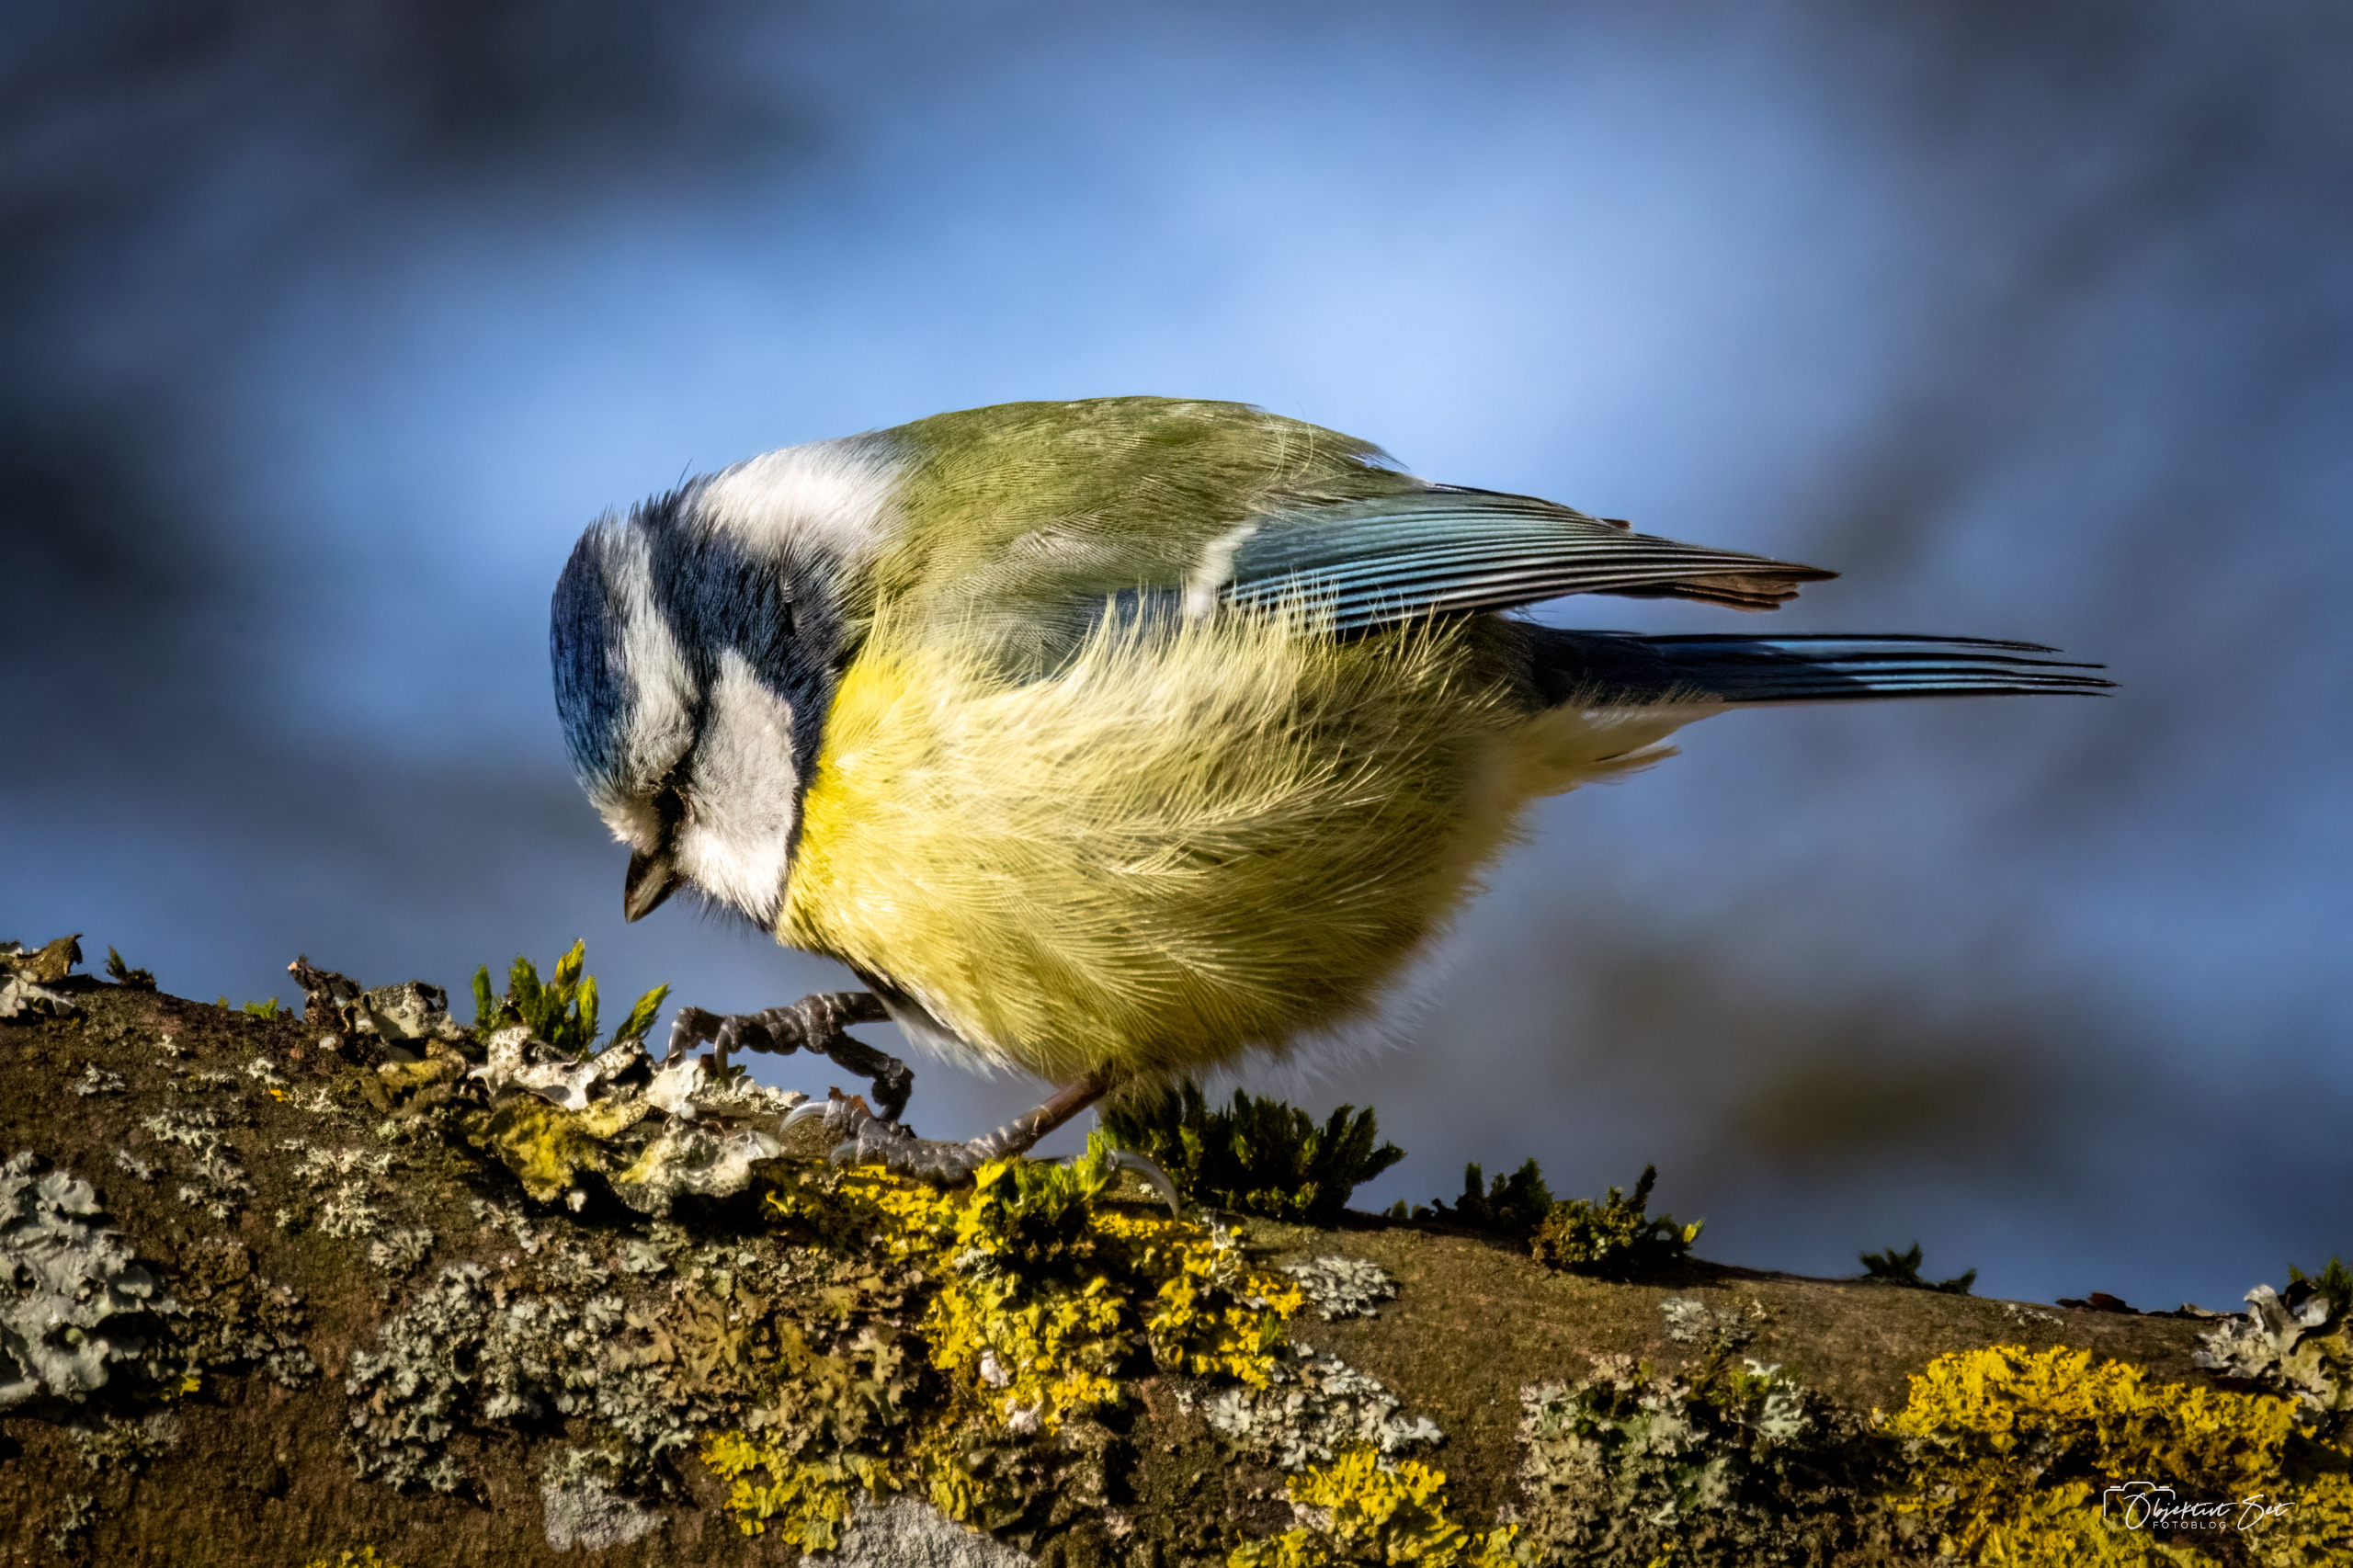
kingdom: Animalia
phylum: Chordata
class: Aves
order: Passeriformes
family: Paridae
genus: Cyanistes
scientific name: Cyanistes caeruleus
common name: Blåmejse
